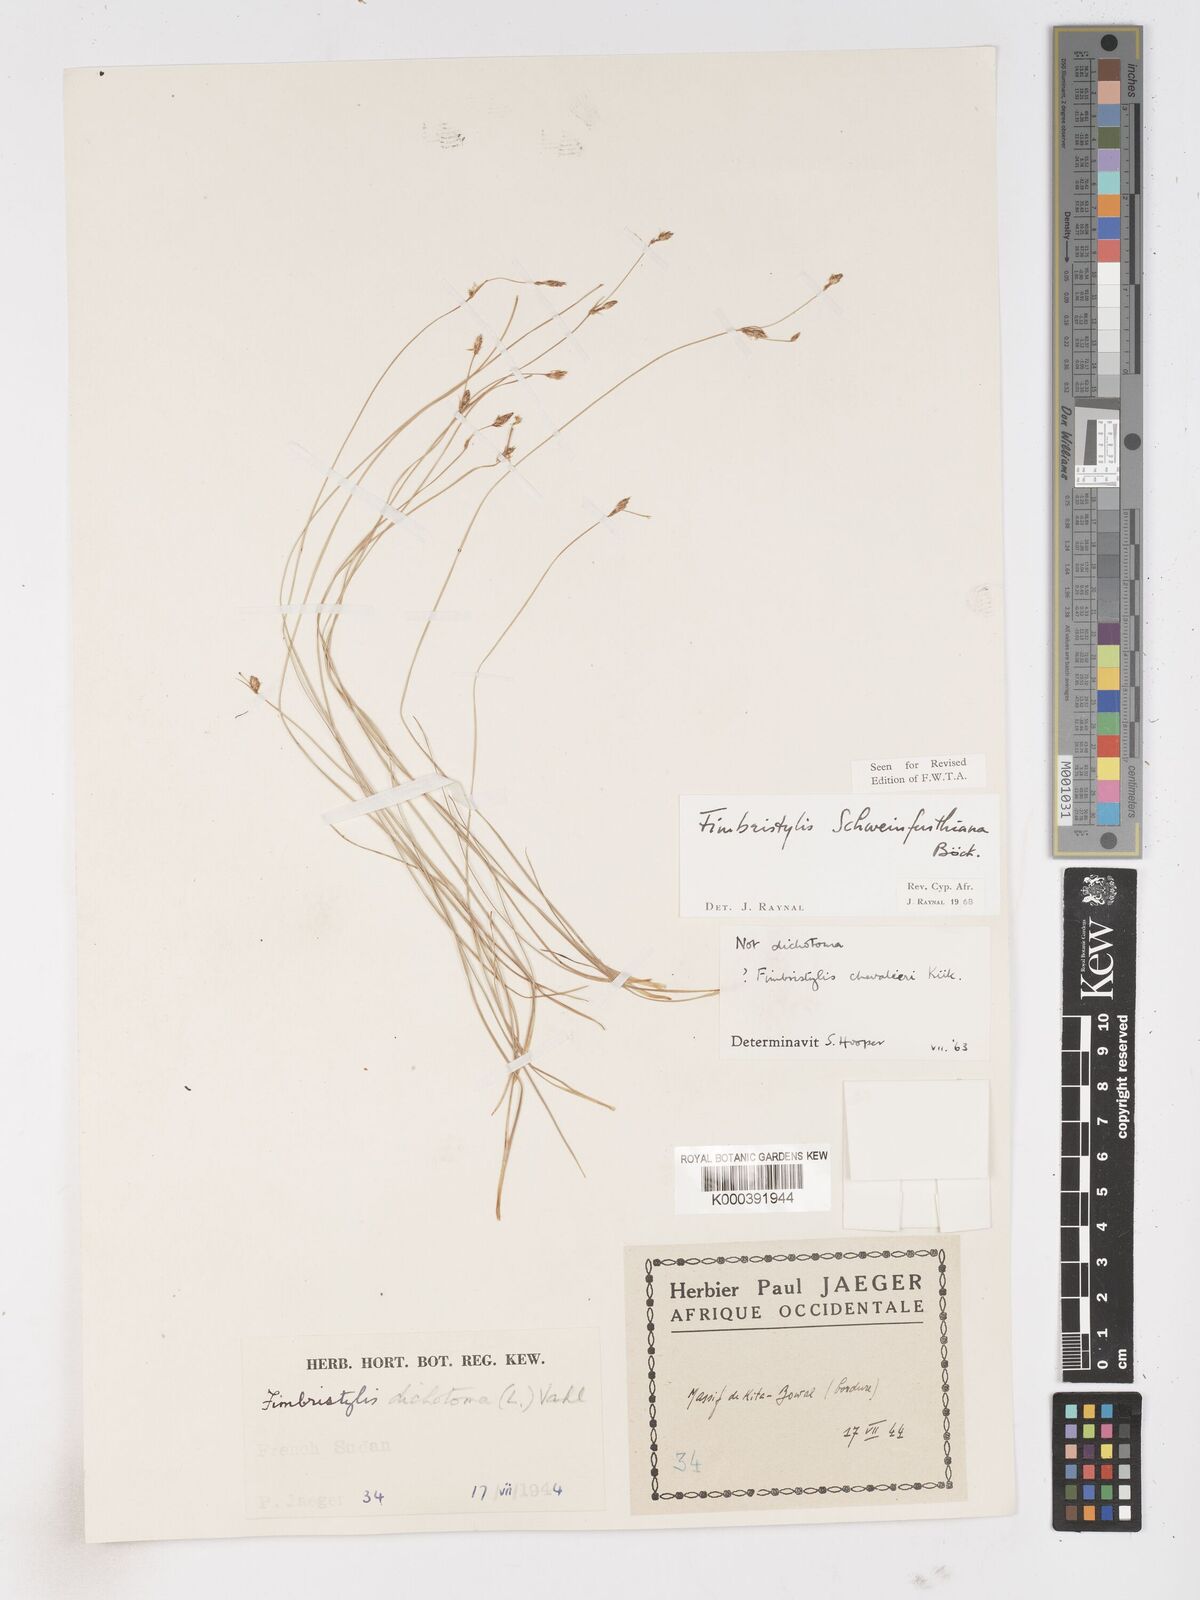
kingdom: Plantae
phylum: Tracheophyta
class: Liliopsida
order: Poales
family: Cyperaceae
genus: Fimbristylis
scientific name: Fimbristylis schweinfurthiana
